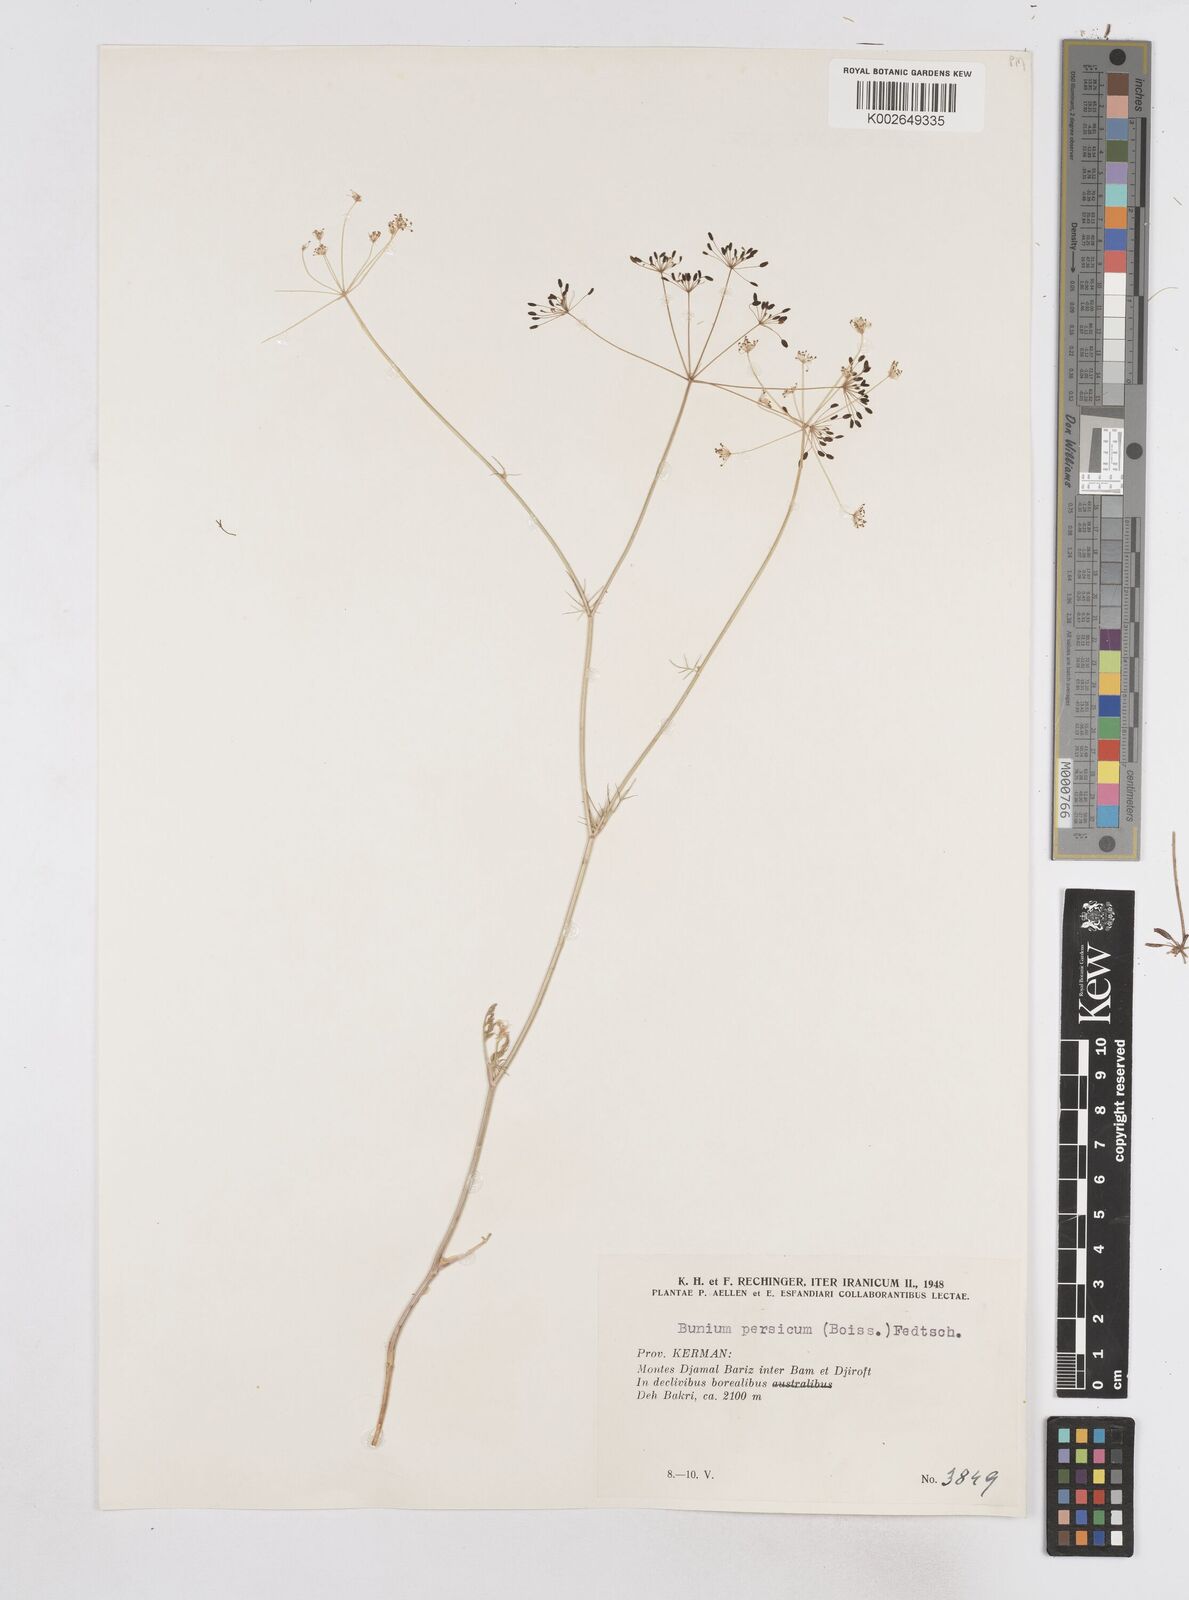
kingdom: Plantae
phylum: Tracheophyta
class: Magnoliopsida
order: Apiales
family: Apiaceae
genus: Elwendia
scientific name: Elwendia persica
